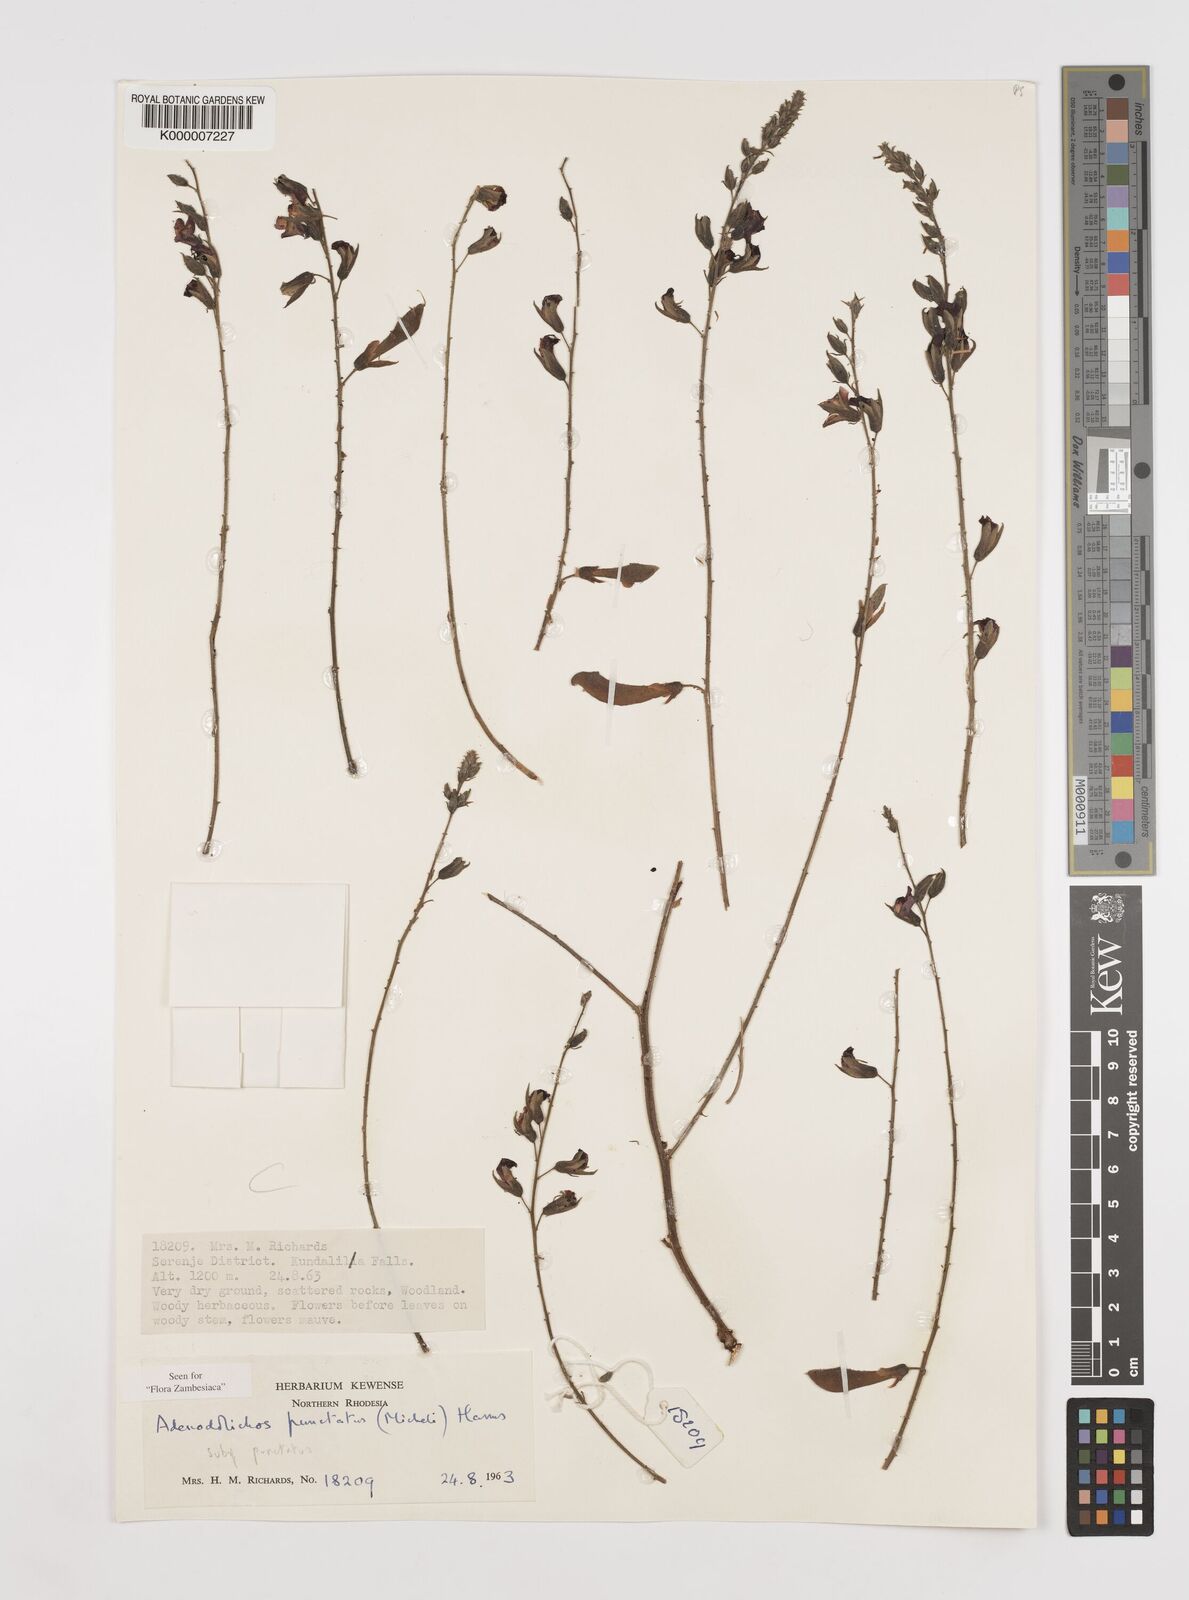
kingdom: Plantae
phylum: Tracheophyta
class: Magnoliopsida
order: Fabales
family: Fabaceae
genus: Adenodolichos
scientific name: Adenodolichos punctatus
